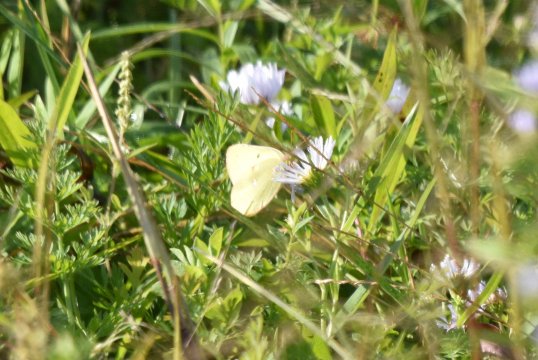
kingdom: Animalia
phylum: Arthropoda
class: Insecta
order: Lepidoptera
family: Pieridae
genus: Colias
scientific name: Colias philodice
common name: Clouded Sulphur
